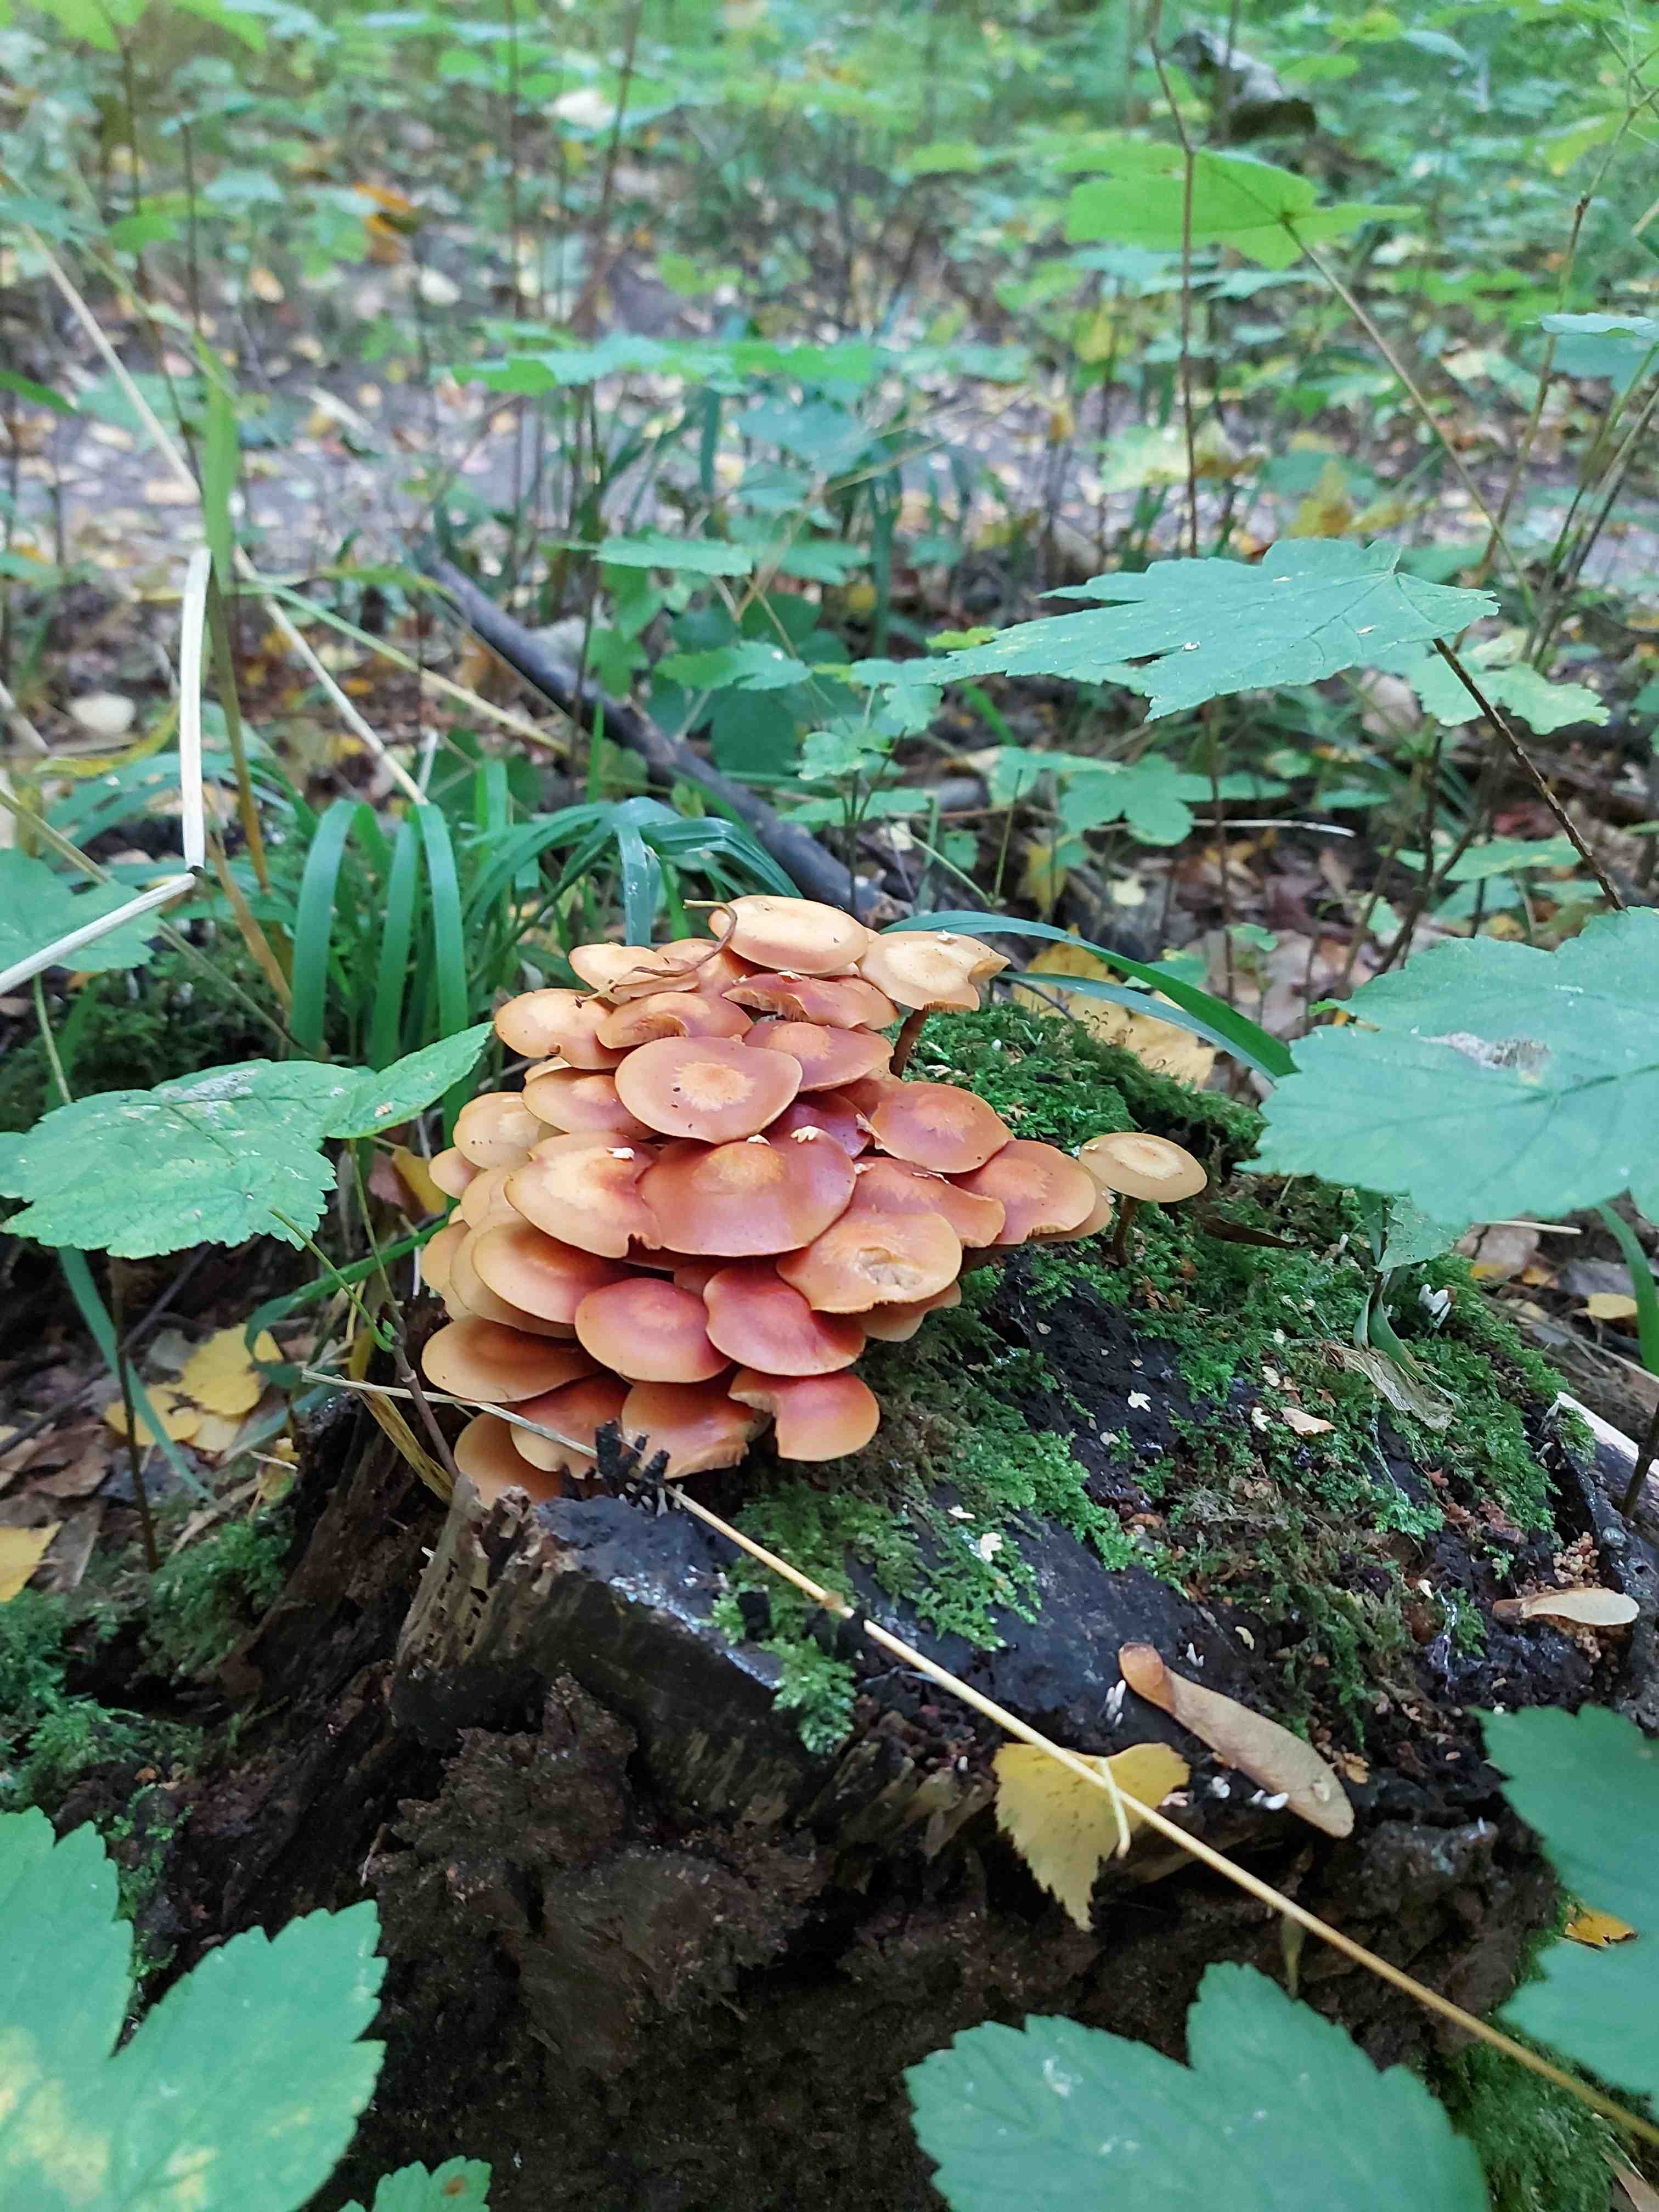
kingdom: Fungi
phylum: Basidiomycota
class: Agaricomycetes
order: Agaricales
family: Strophariaceae
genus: Kuehneromyces
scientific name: Kuehneromyces mutabilis
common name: foranderlig skælhat
